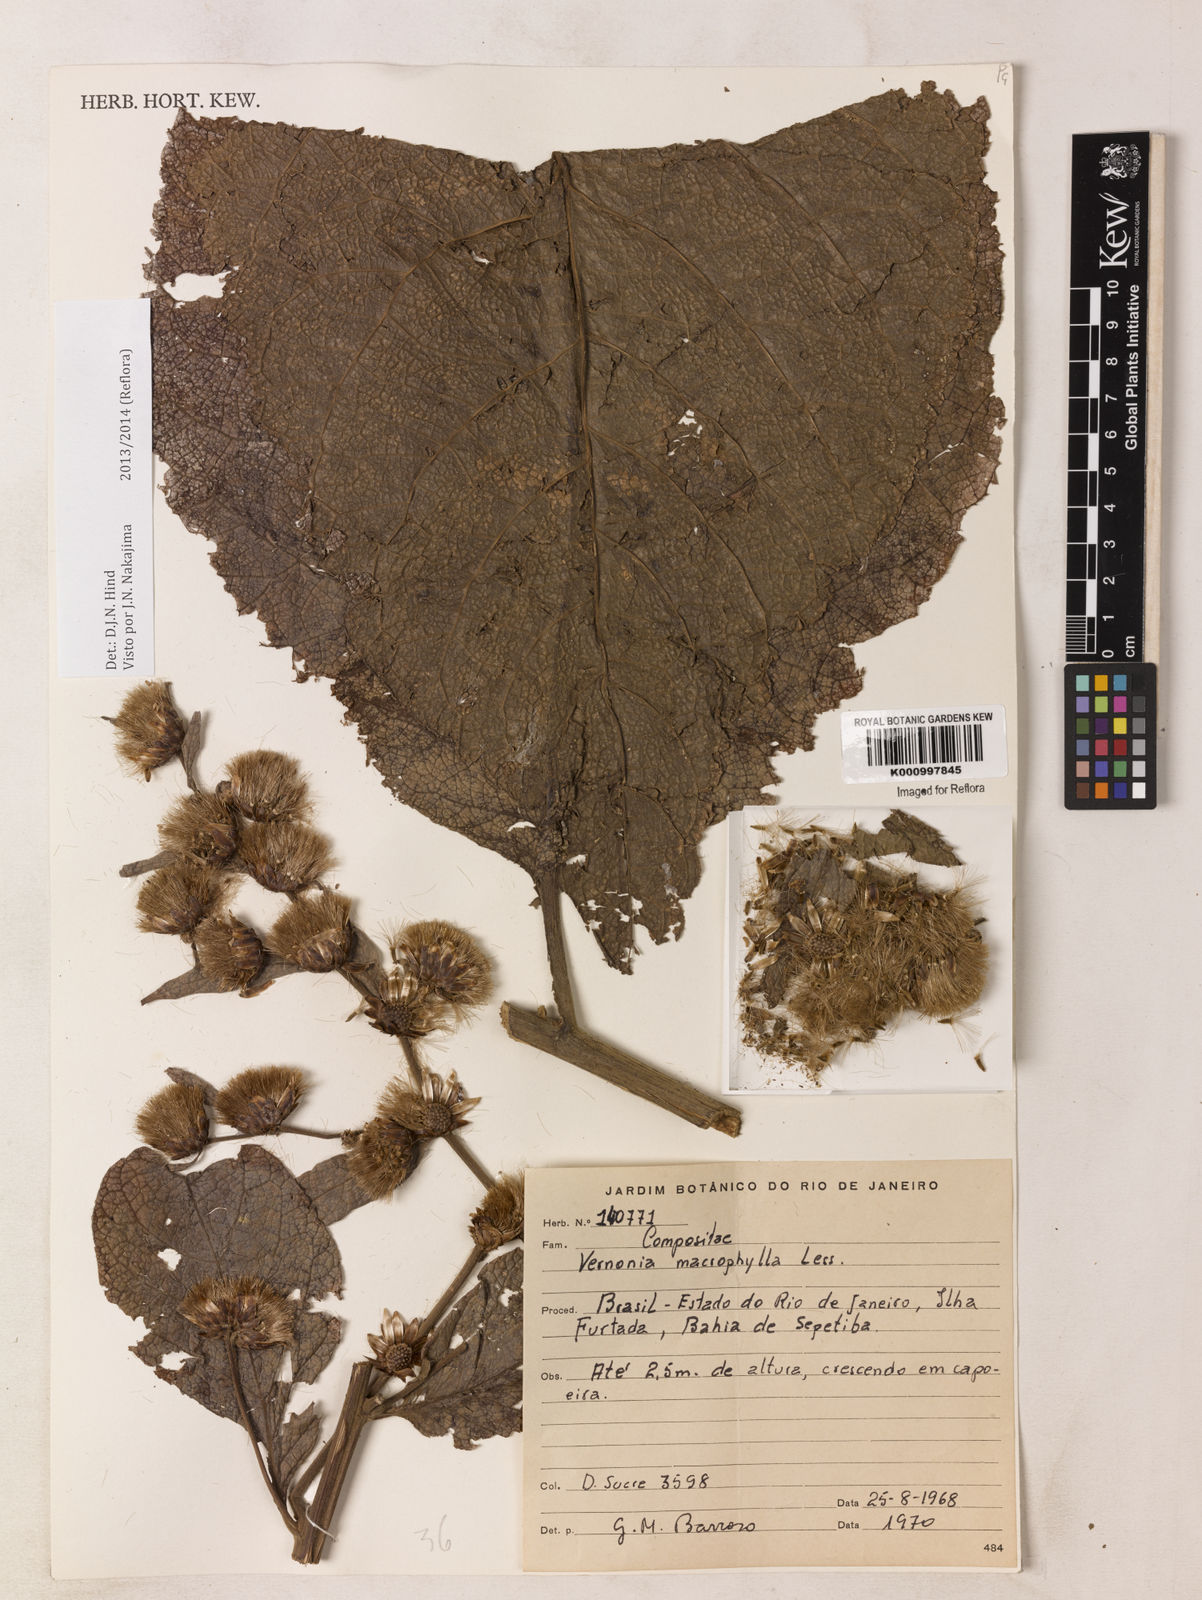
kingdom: Plantae
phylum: Tracheophyta
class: Magnoliopsida
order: Asterales
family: Asteraceae
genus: Lessingianthus
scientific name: Lessingianthus macrophyllus
